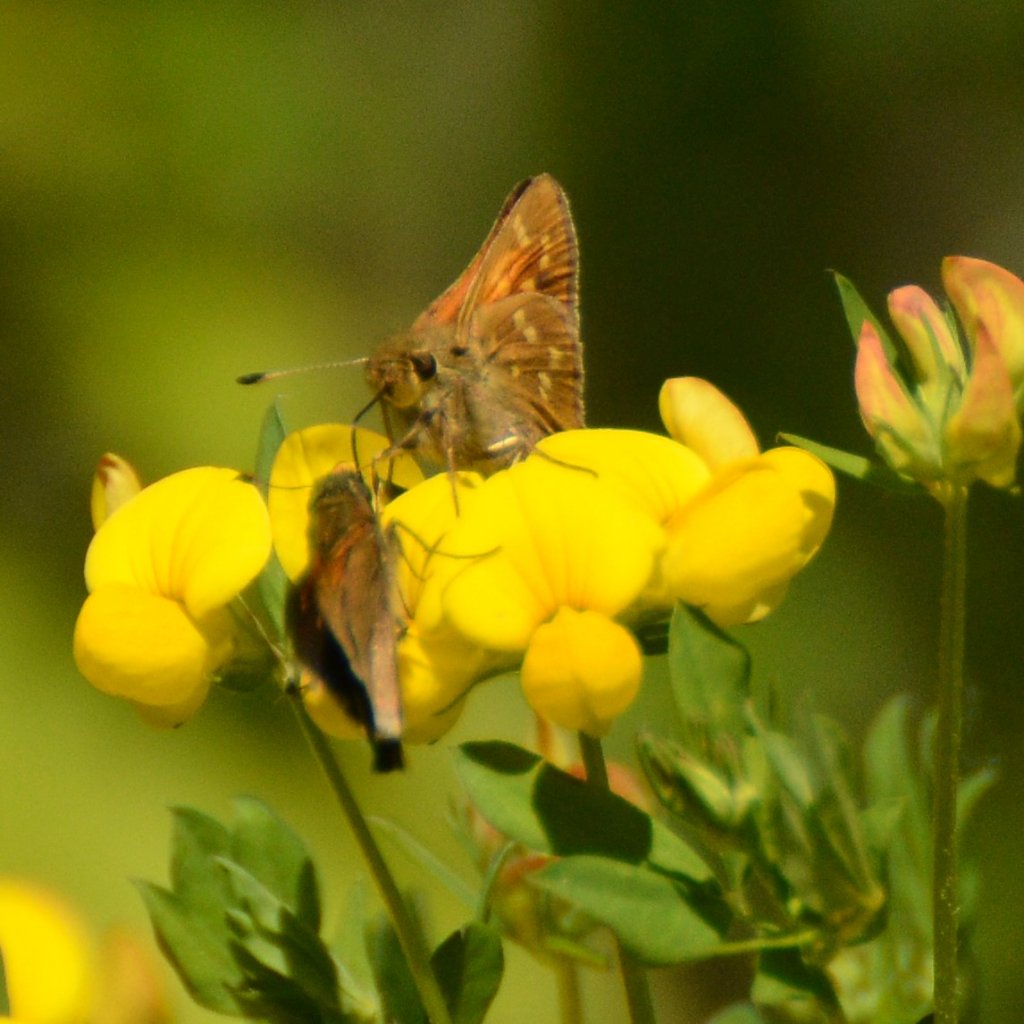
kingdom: Animalia
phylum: Arthropoda
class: Insecta
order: Lepidoptera
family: Hesperiidae
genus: Hesperia
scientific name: Hesperia sassacus
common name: Sassacus Skipper
